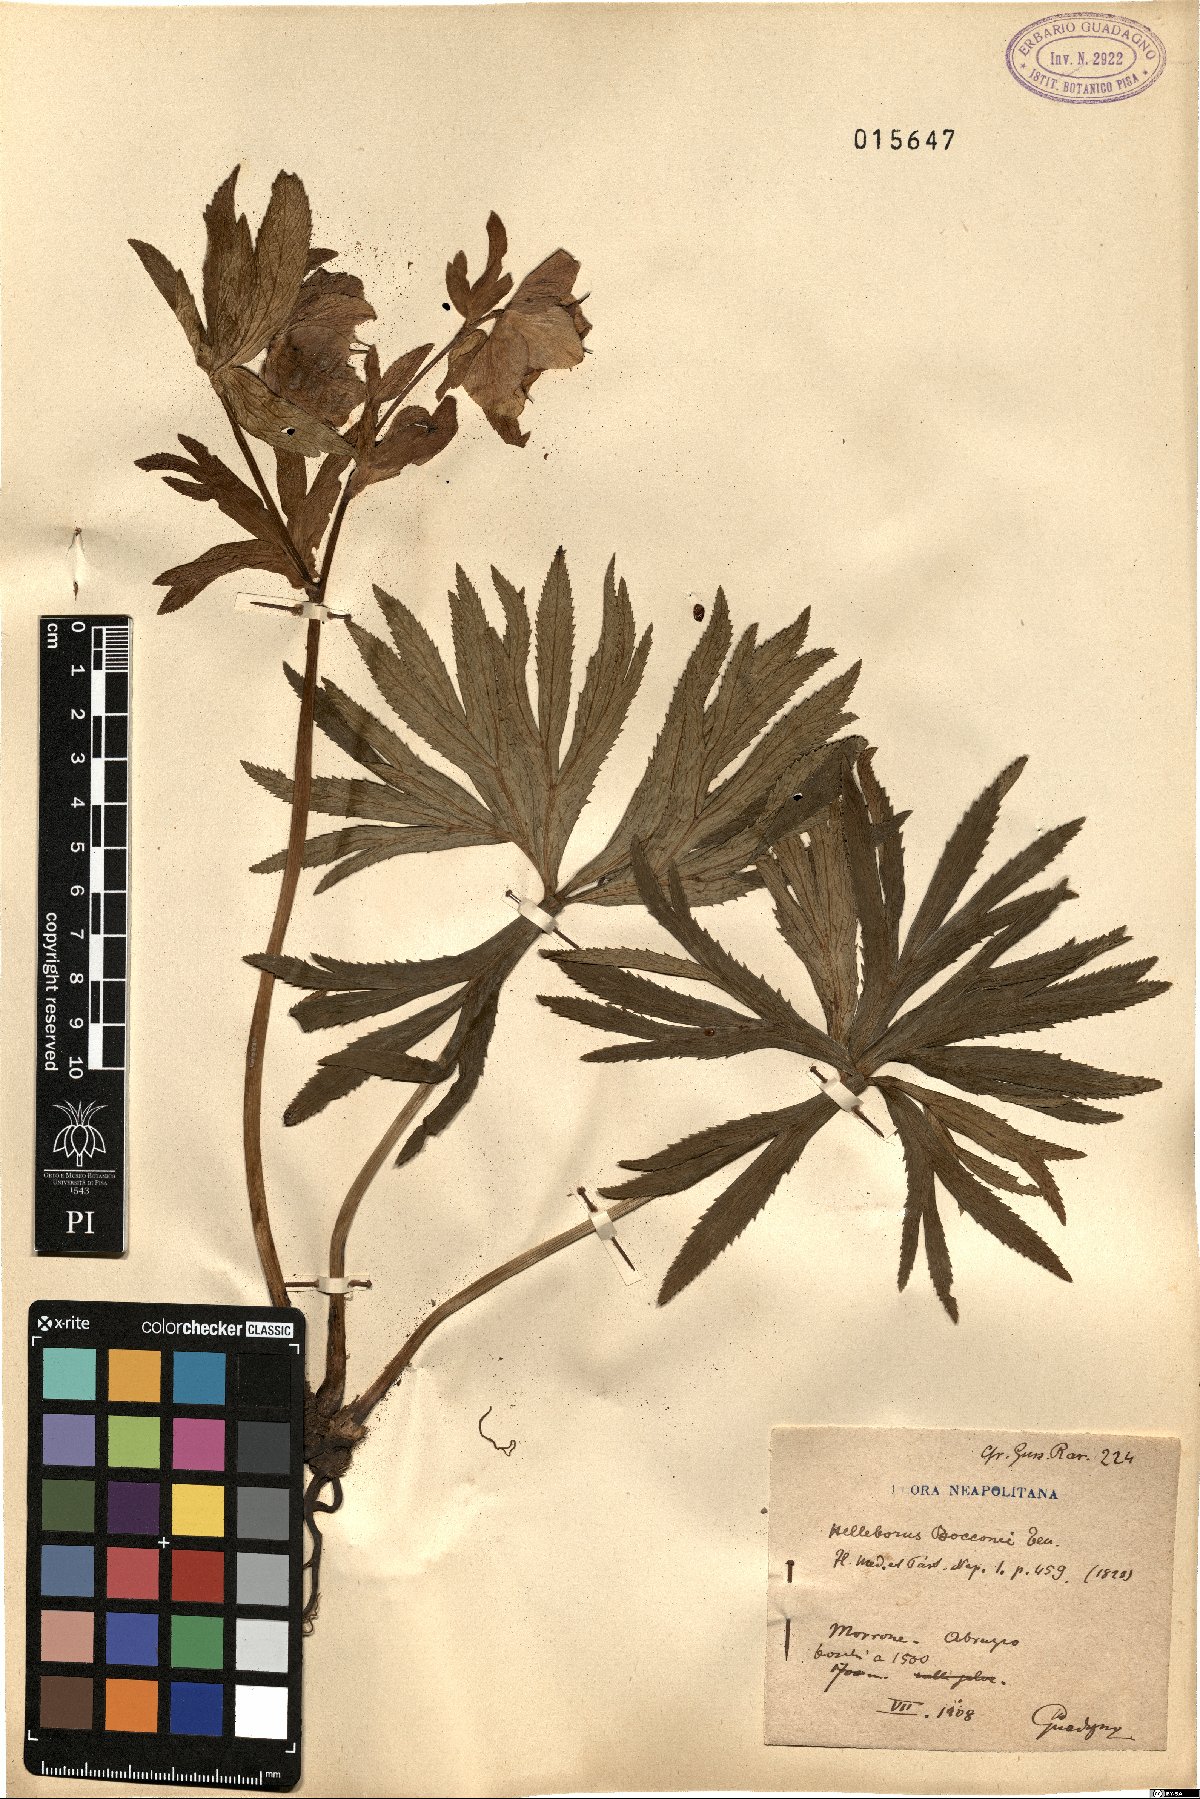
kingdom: Plantae
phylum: Tracheophyta
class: Magnoliopsida
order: Ranunculales
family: Ranunculaceae
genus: Helleborus
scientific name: Helleborus bocconei
